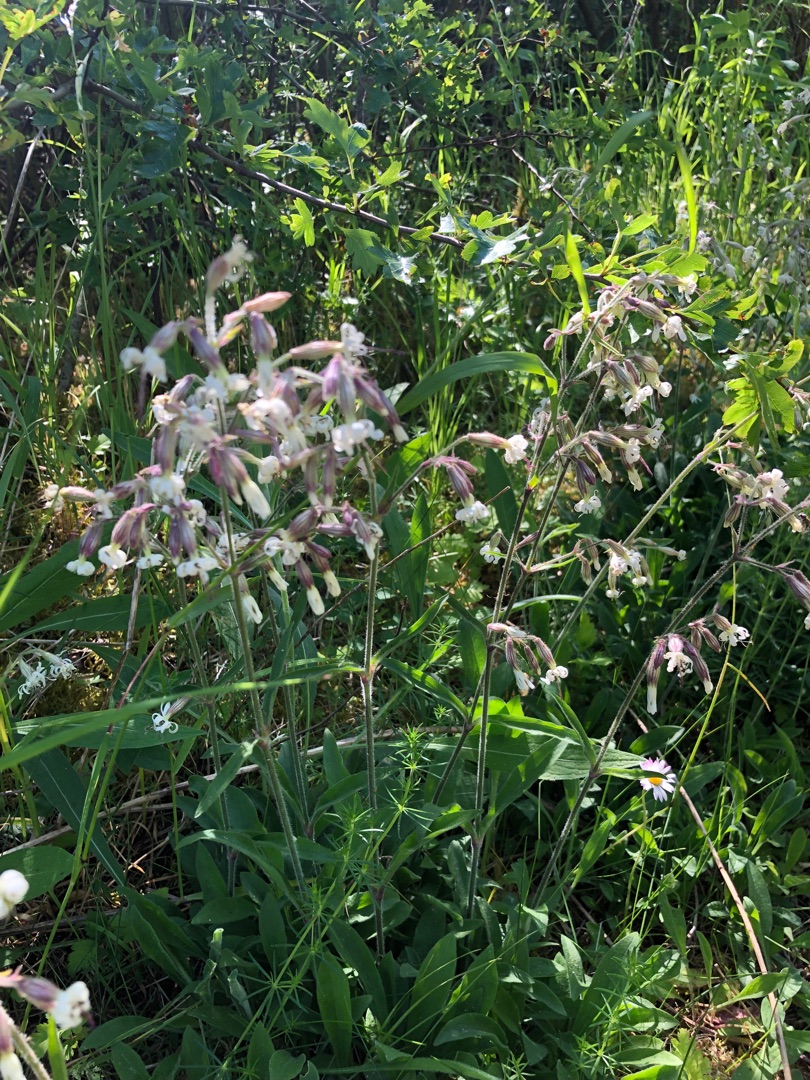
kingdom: Plantae
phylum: Tracheophyta
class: Magnoliopsida
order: Caryophyllales
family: Caryophyllaceae
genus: Silene
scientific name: Silene nutans
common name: Nikkende limurt
